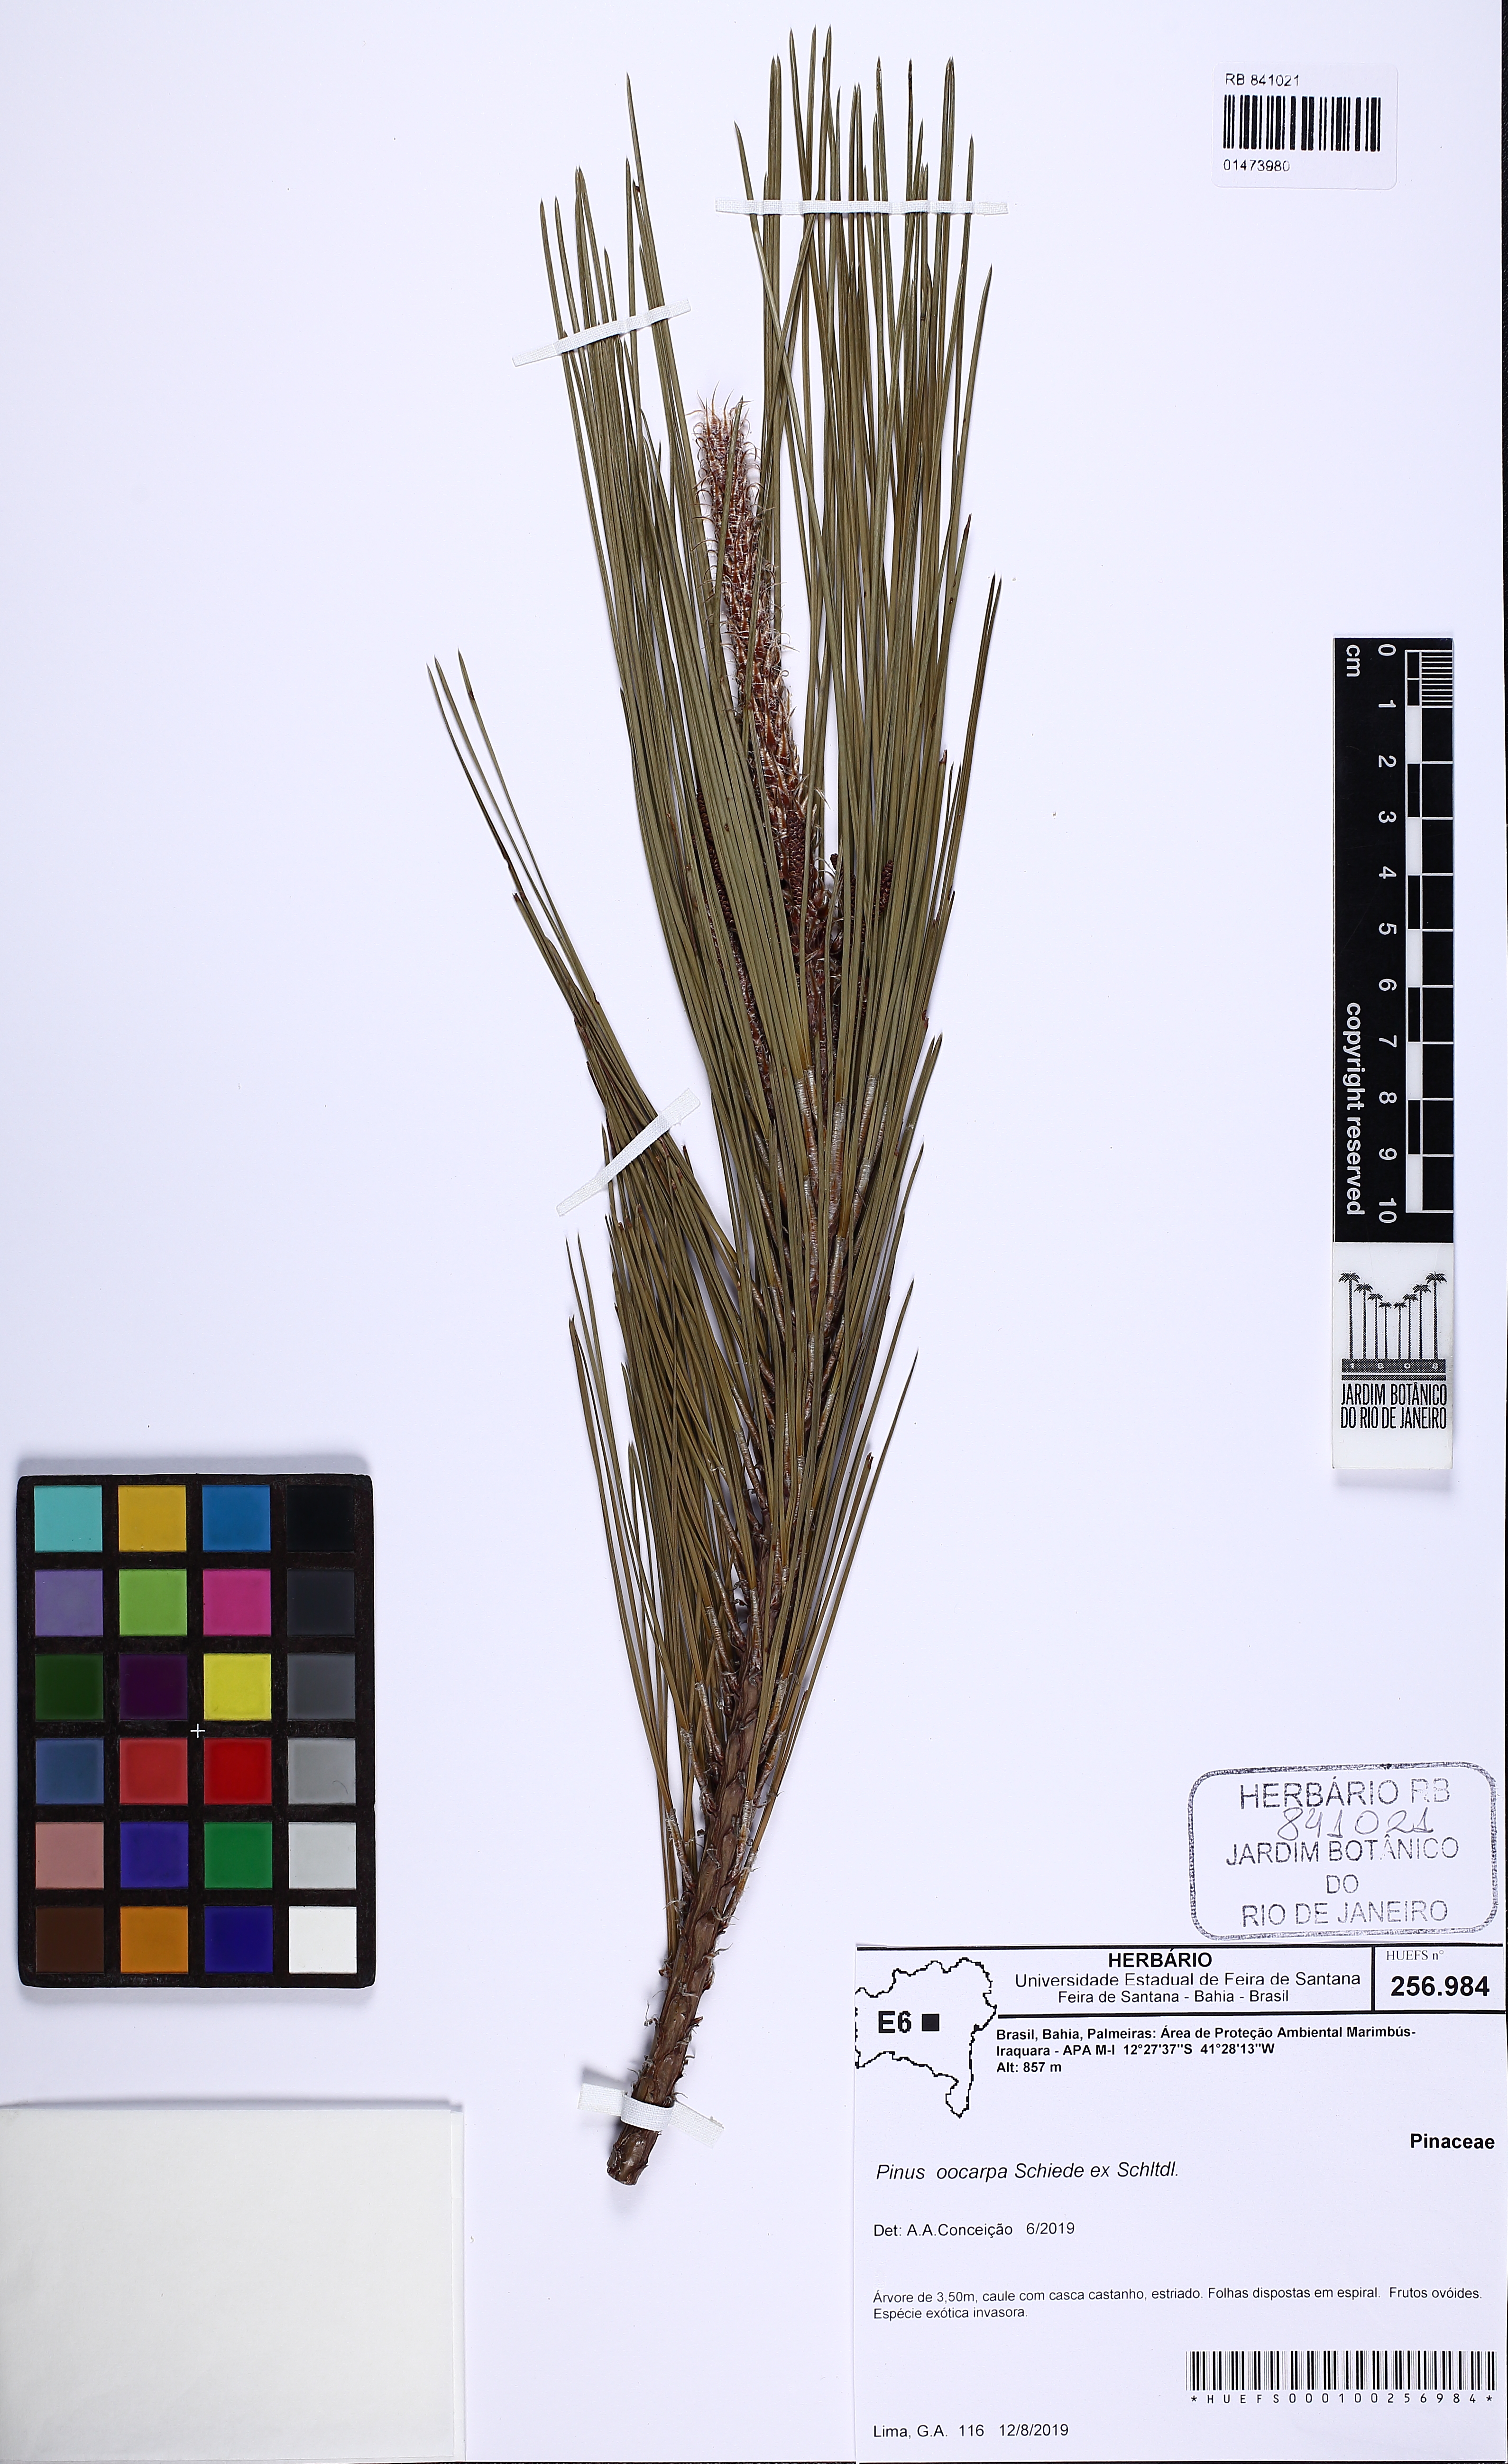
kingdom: Plantae
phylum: Tracheophyta
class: Pinopsida
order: Pinales
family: Pinaceae
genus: Pinus
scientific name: Pinus oocarpa
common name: Egg-cone pine
